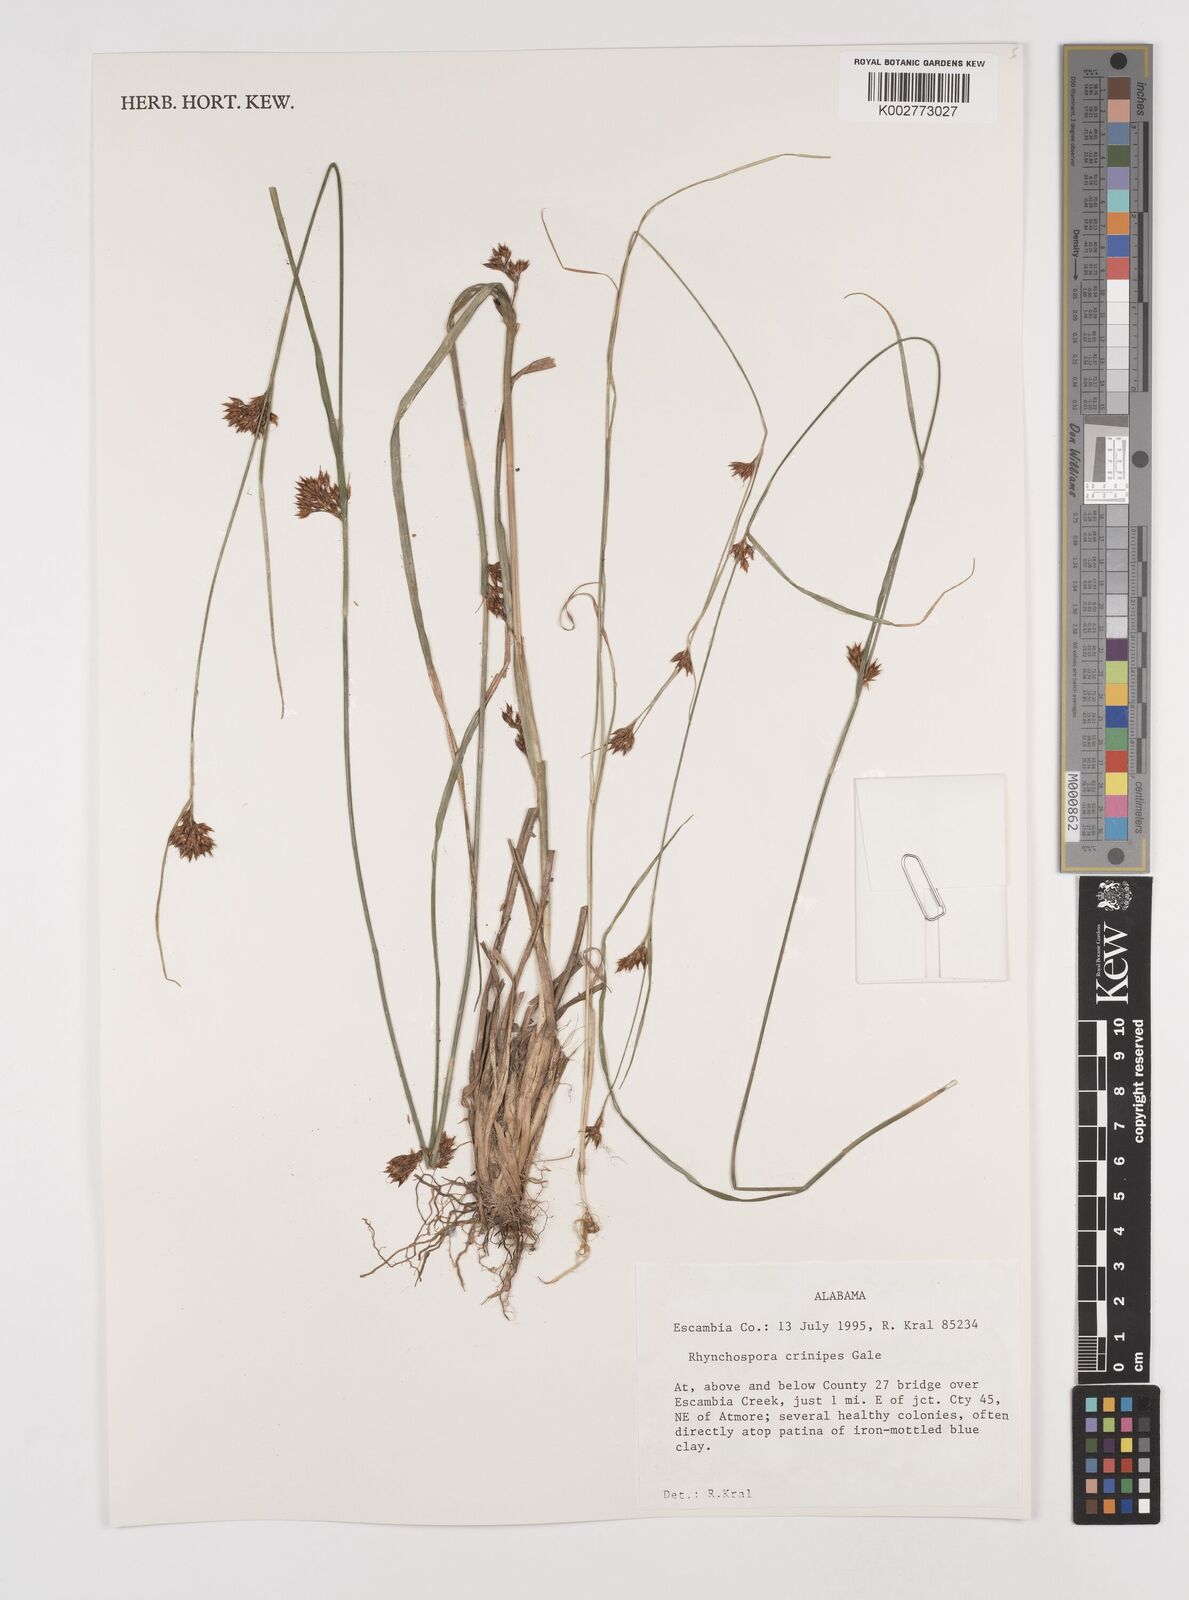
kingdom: Plantae
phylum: Tracheophyta
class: Liliopsida
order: Poales
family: Cyperaceae
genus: Rhynchospora
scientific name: Rhynchospora crinipes
